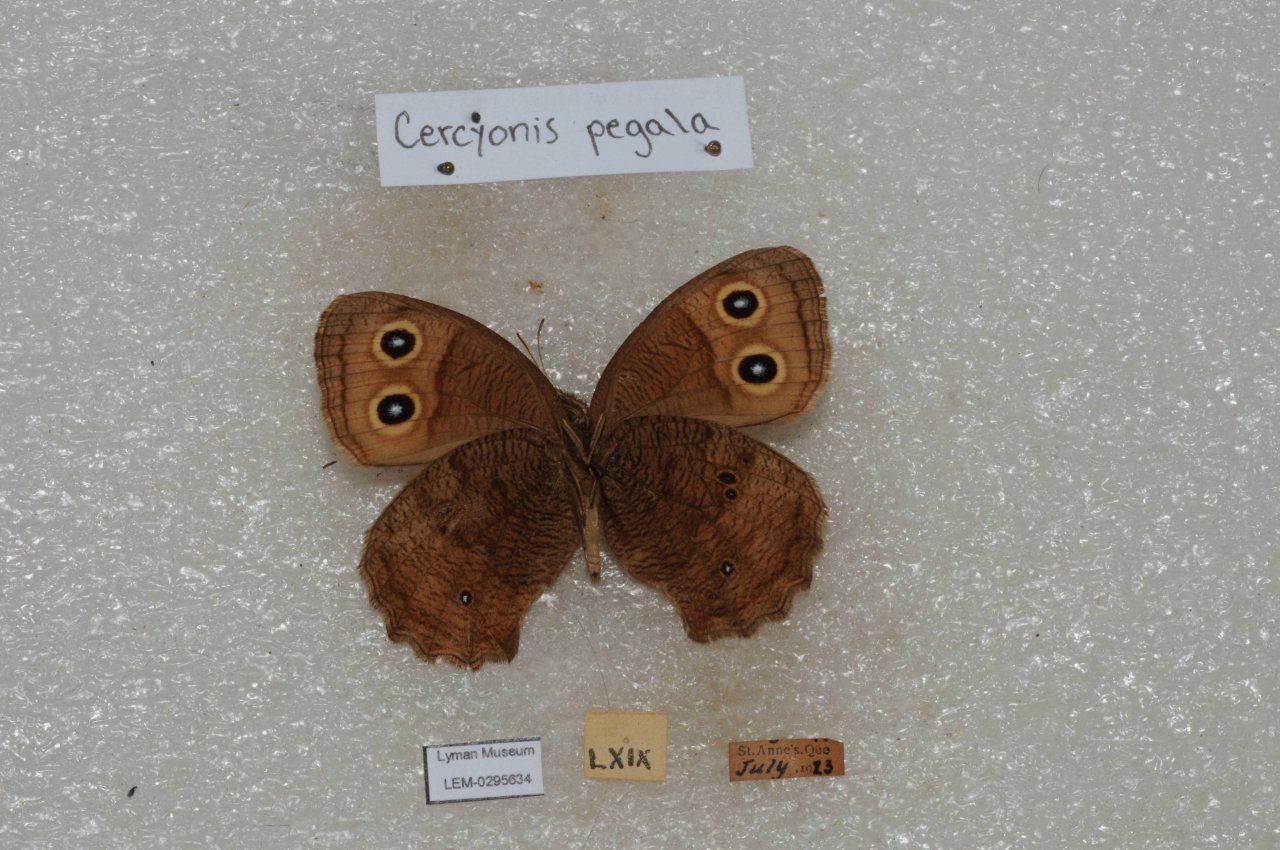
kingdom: Animalia
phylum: Arthropoda
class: Insecta
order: Lepidoptera
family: Nymphalidae
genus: Cercyonis
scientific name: Cercyonis pegala
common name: Common Wood-Nymph
